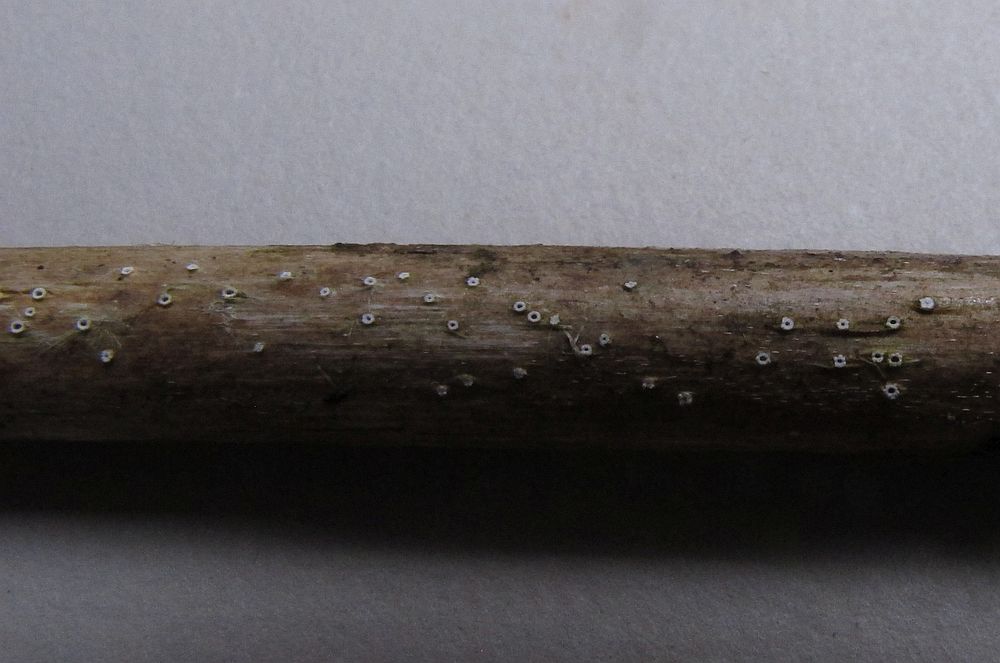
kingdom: Fungi
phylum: Ascomycota
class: Lecanoromycetes
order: Ostropales
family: Stictidaceae
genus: Stictis
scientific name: Stictis stellata
